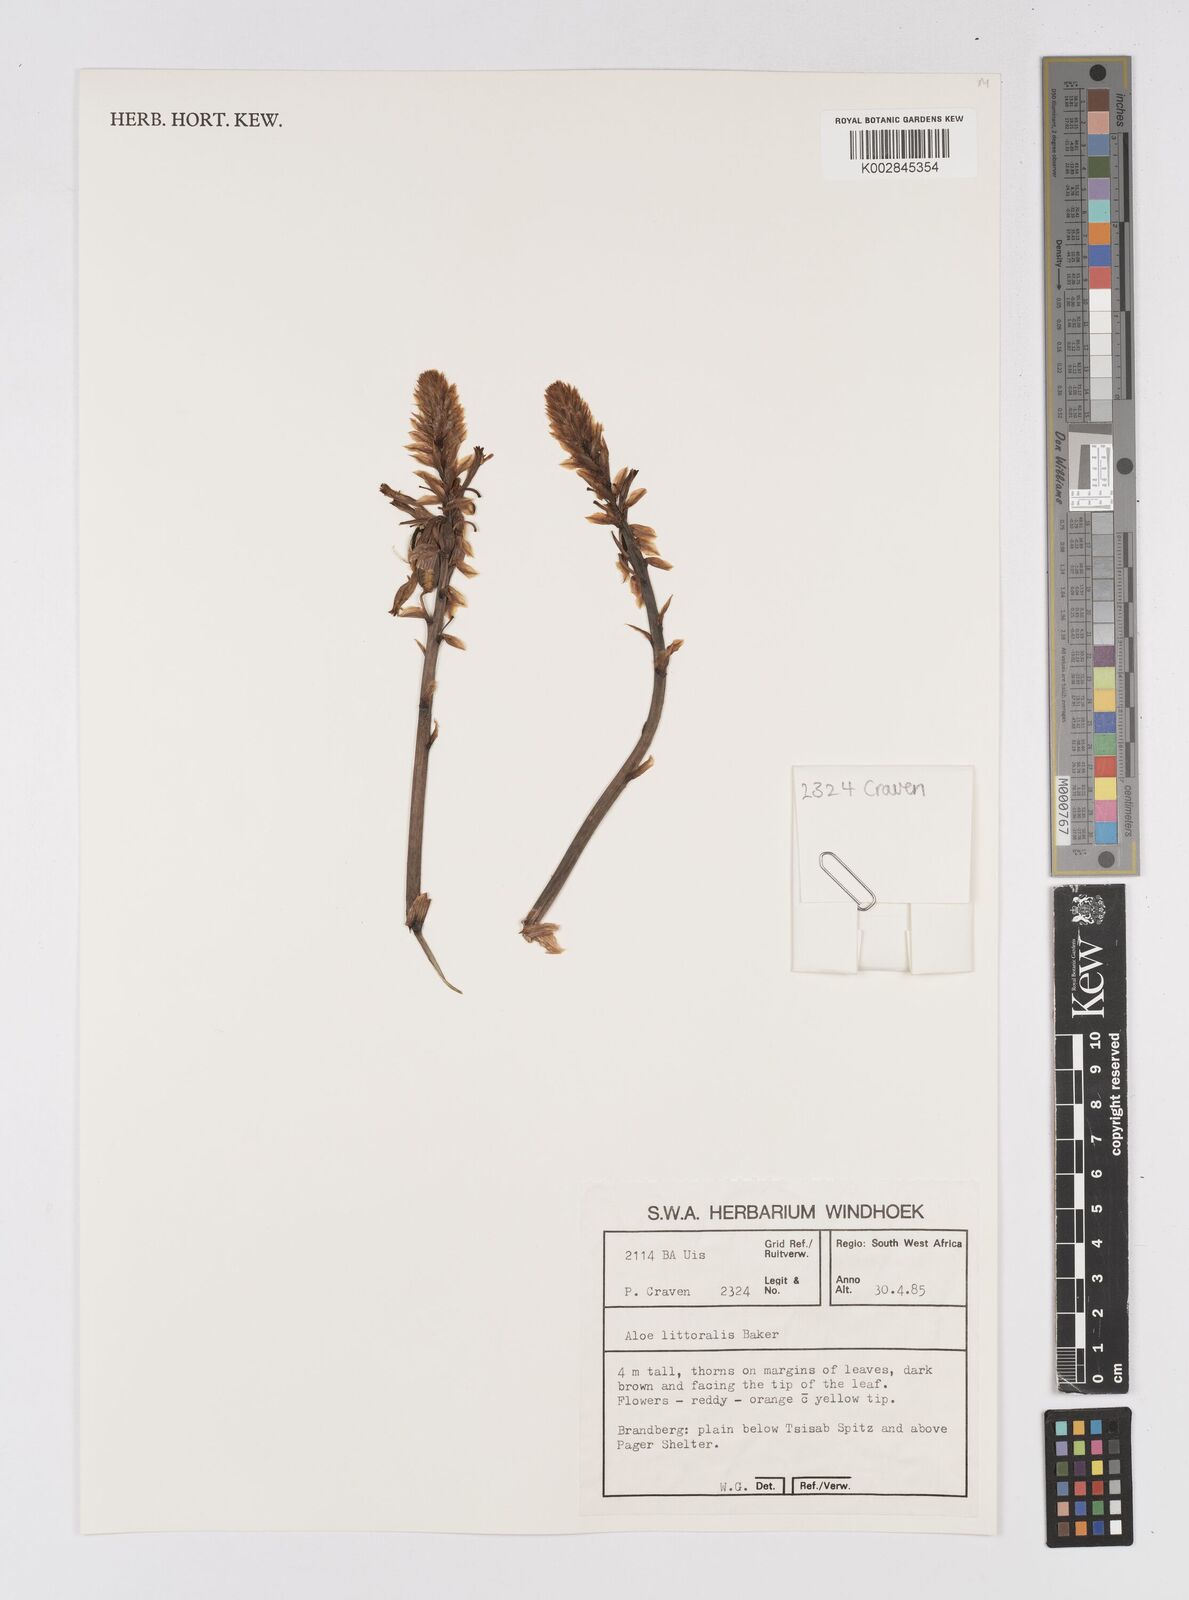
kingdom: Plantae
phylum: Tracheophyta
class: Liliopsida
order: Asparagales
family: Asphodelaceae
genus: Aloe
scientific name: Aloe littoralis
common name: Luanda tree aloe
